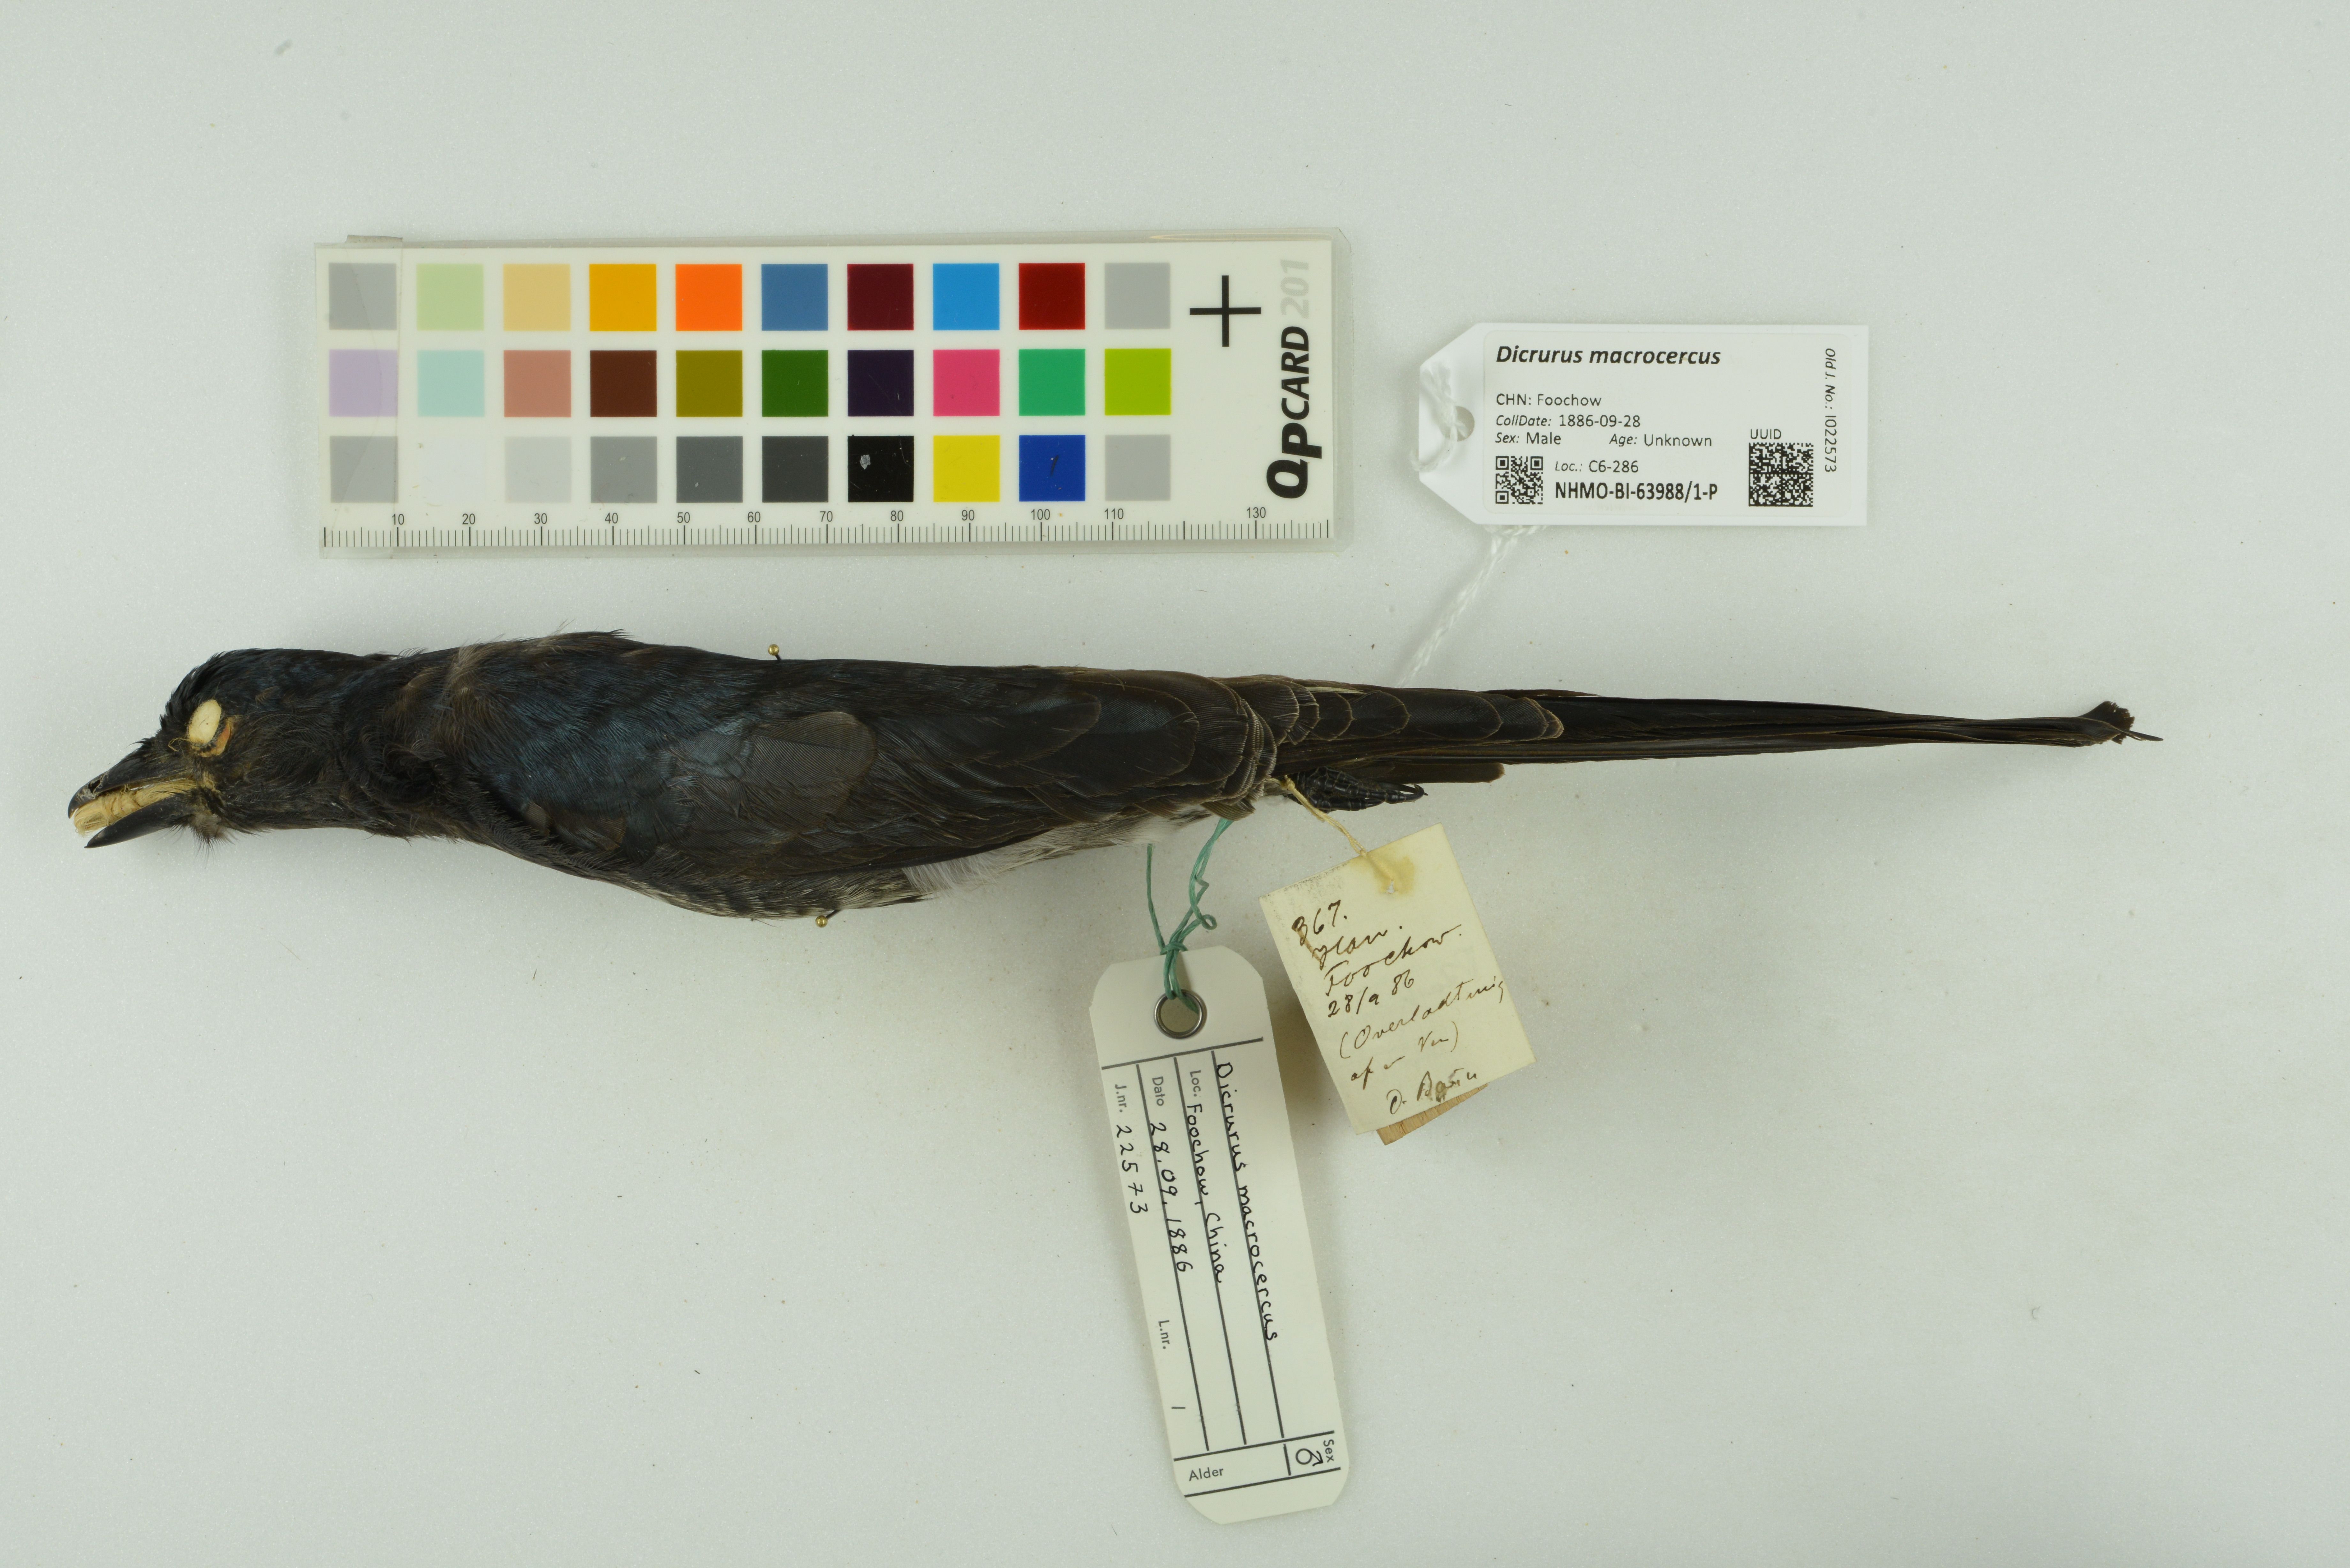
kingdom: Animalia
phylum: Chordata
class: Aves
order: Passeriformes
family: Dicruridae
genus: Dicrurus
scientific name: Dicrurus macrocercus
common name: Black drongo
